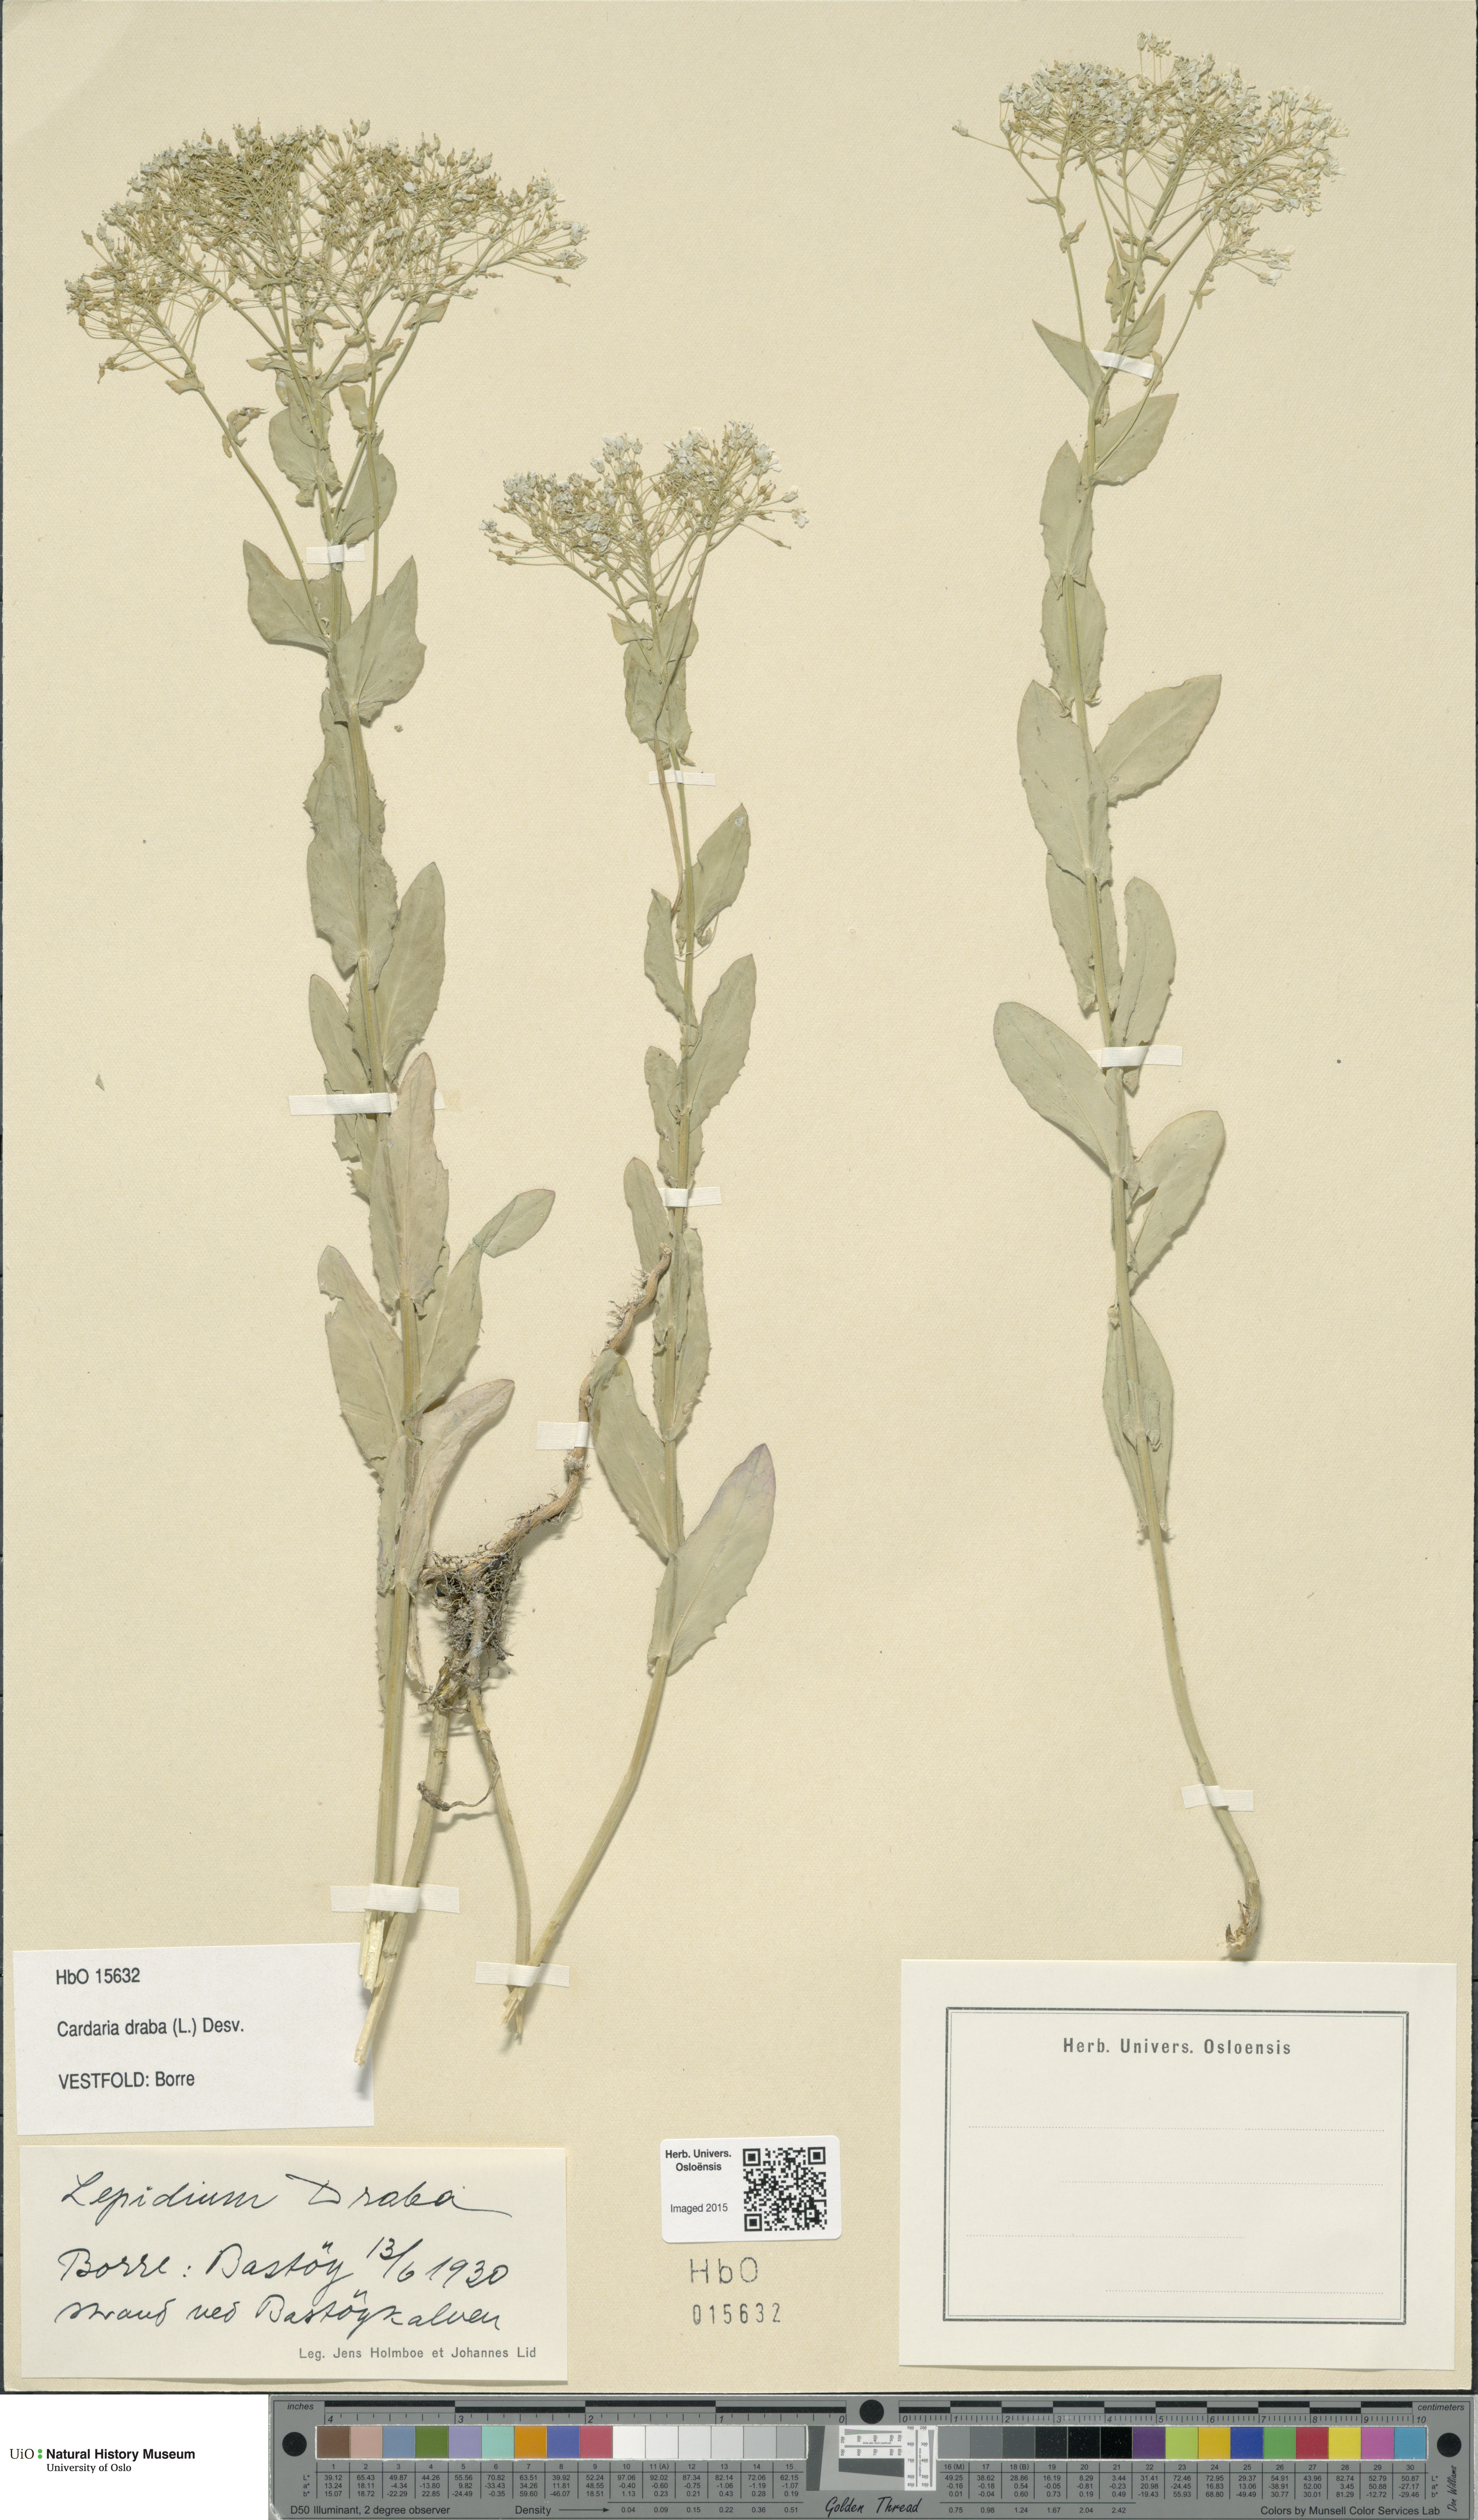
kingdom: Plantae
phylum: Tracheophyta
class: Magnoliopsida
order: Brassicales
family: Brassicaceae
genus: Lepidium
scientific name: Lepidium draba
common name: Hoary cress
